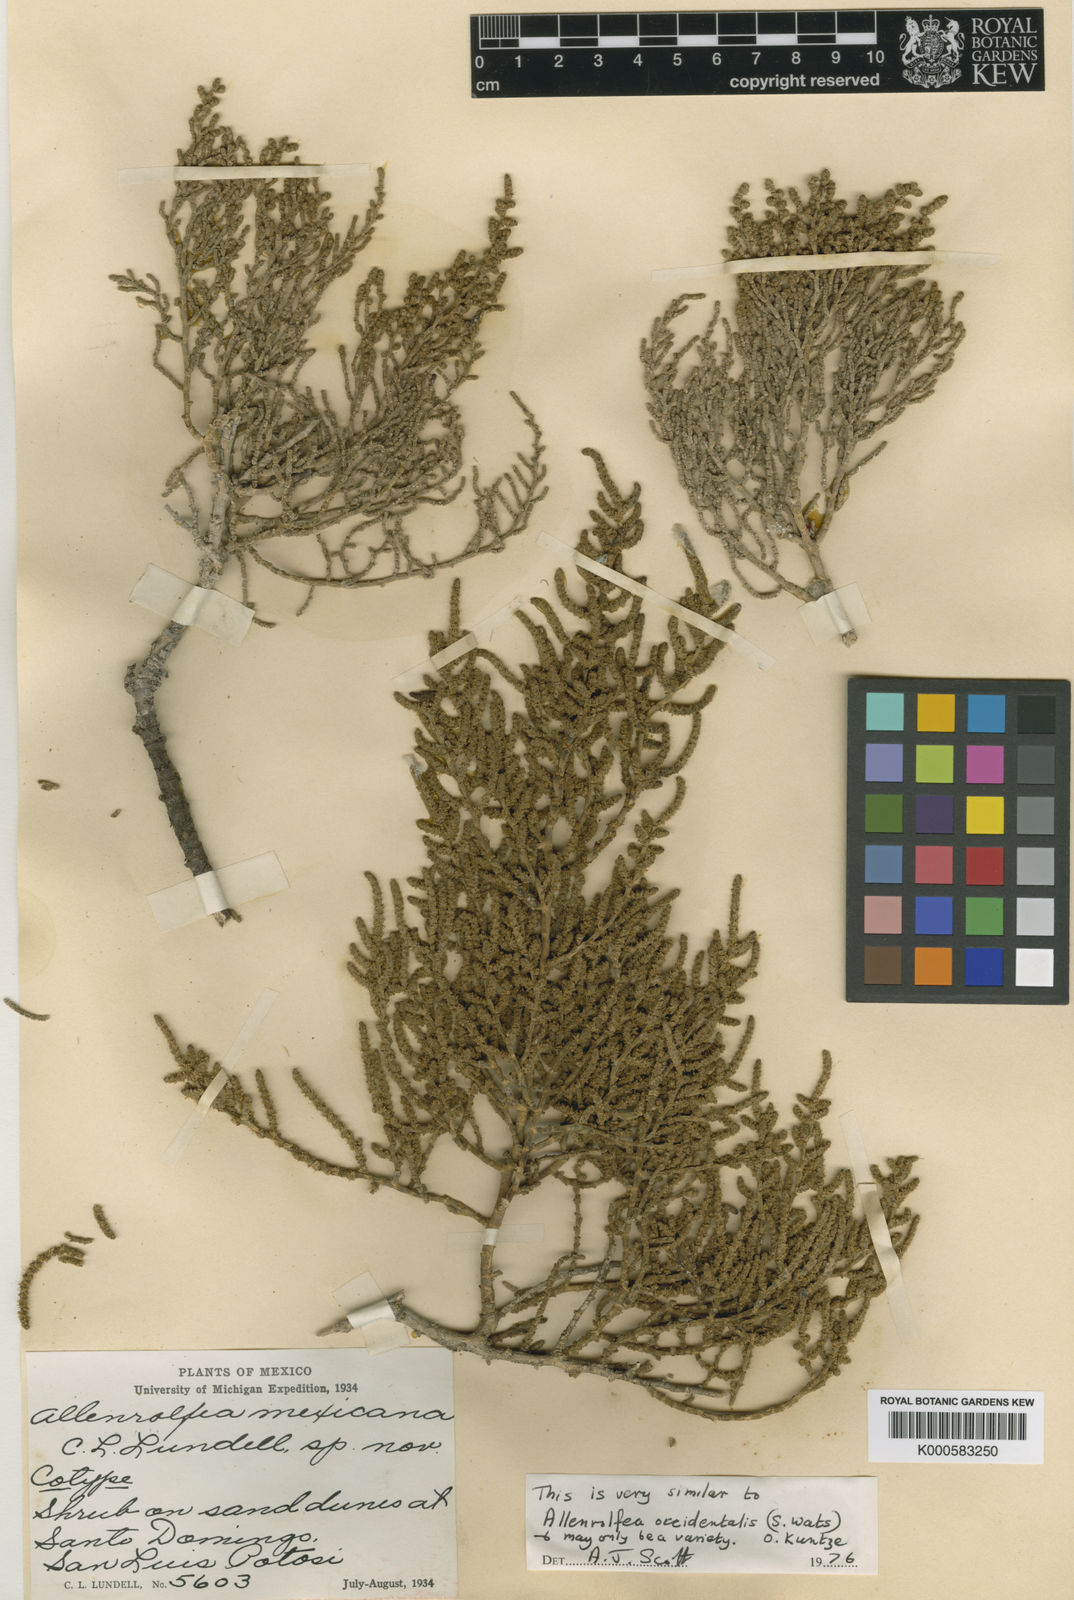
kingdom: Plantae
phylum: Tracheophyta
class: Magnoliopsida
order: Caryophyllales
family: Amaranthaceae
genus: Heterostachys
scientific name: Heterostachys
